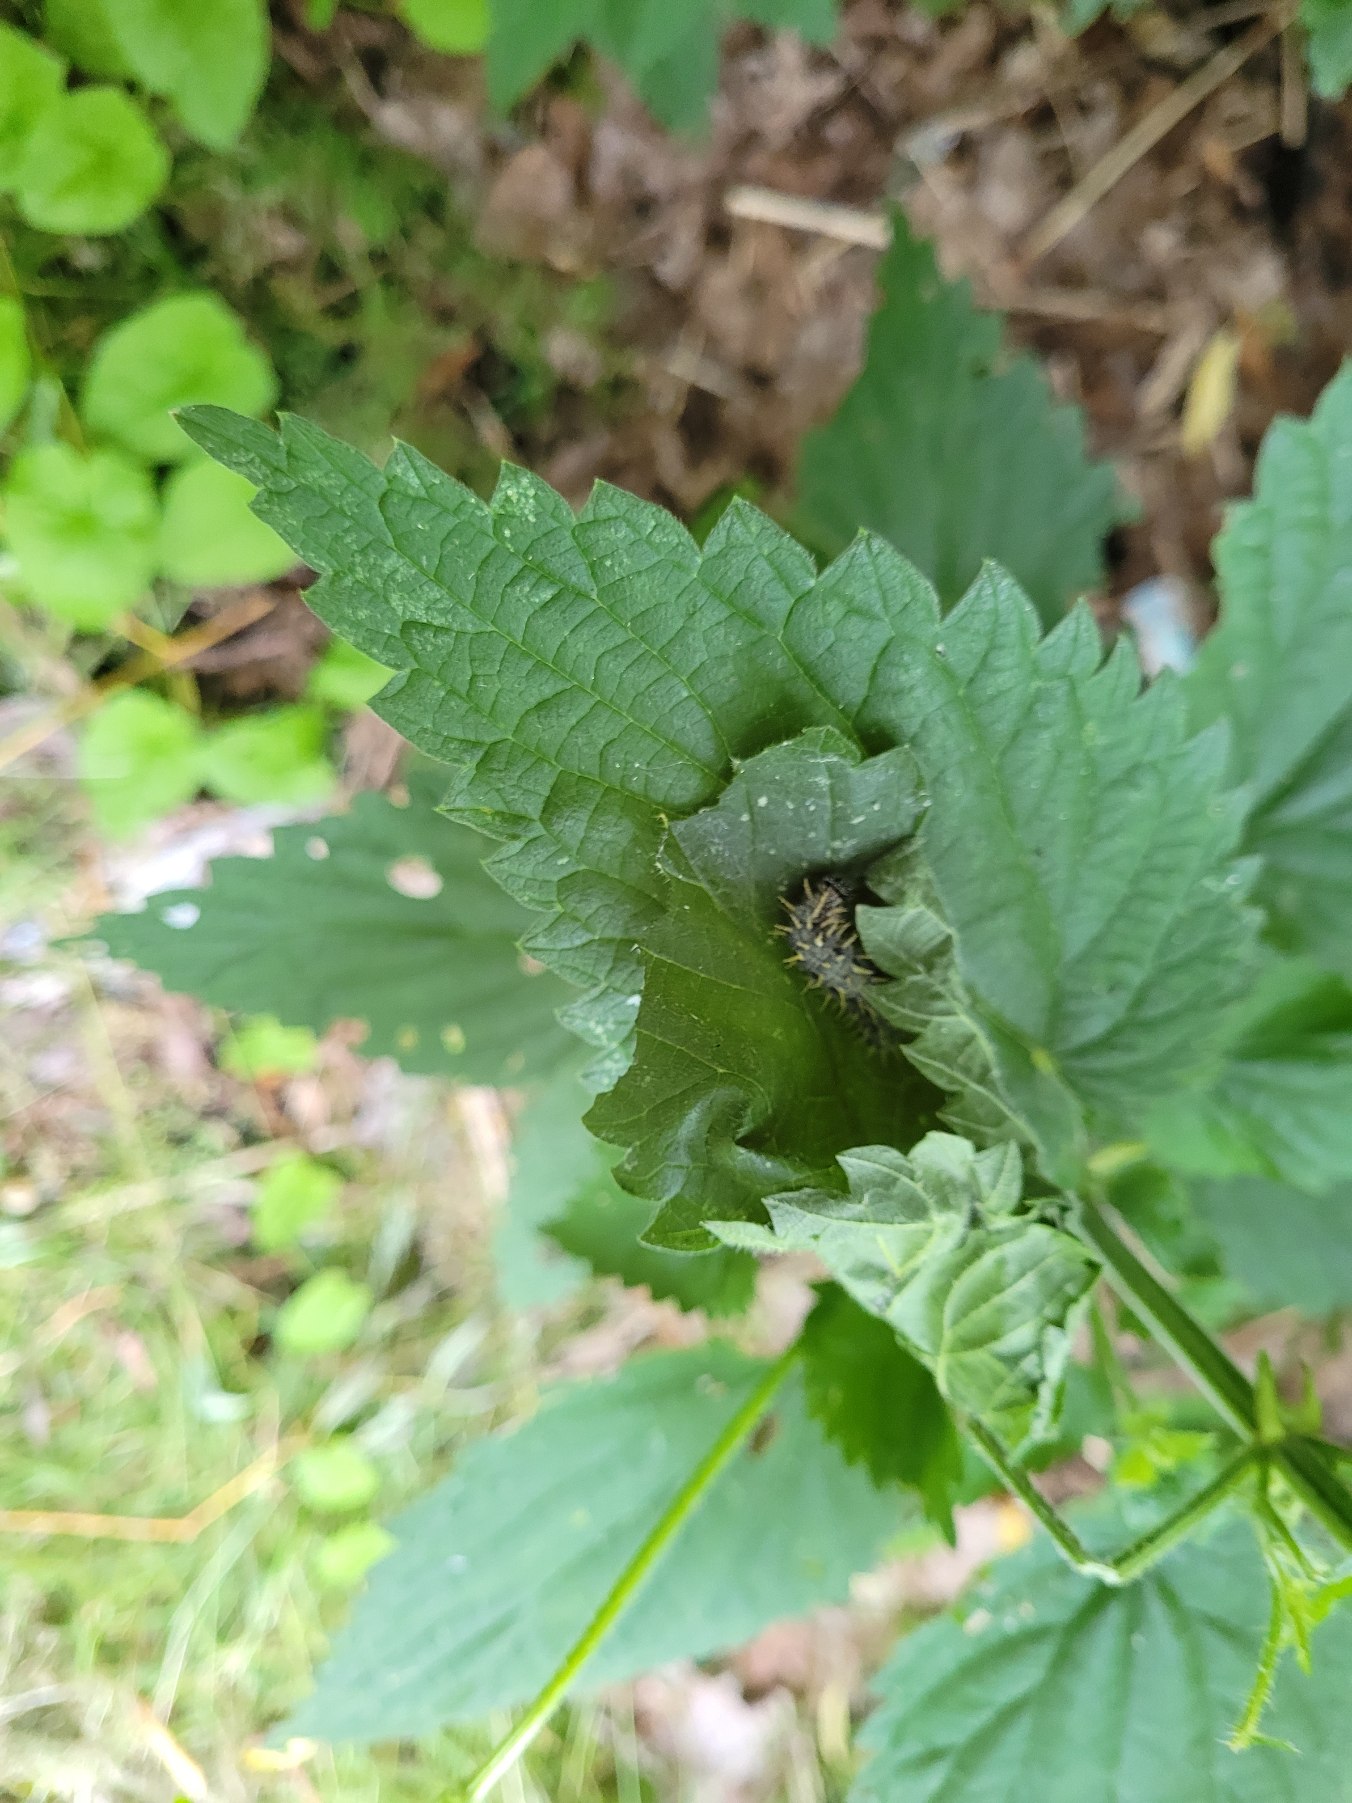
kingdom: Animalia
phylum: Arthropoda
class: Insecta
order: Lepidoptera
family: Nymphalidae
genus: Vanessa
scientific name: Vanessa atalanta
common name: Admiral
